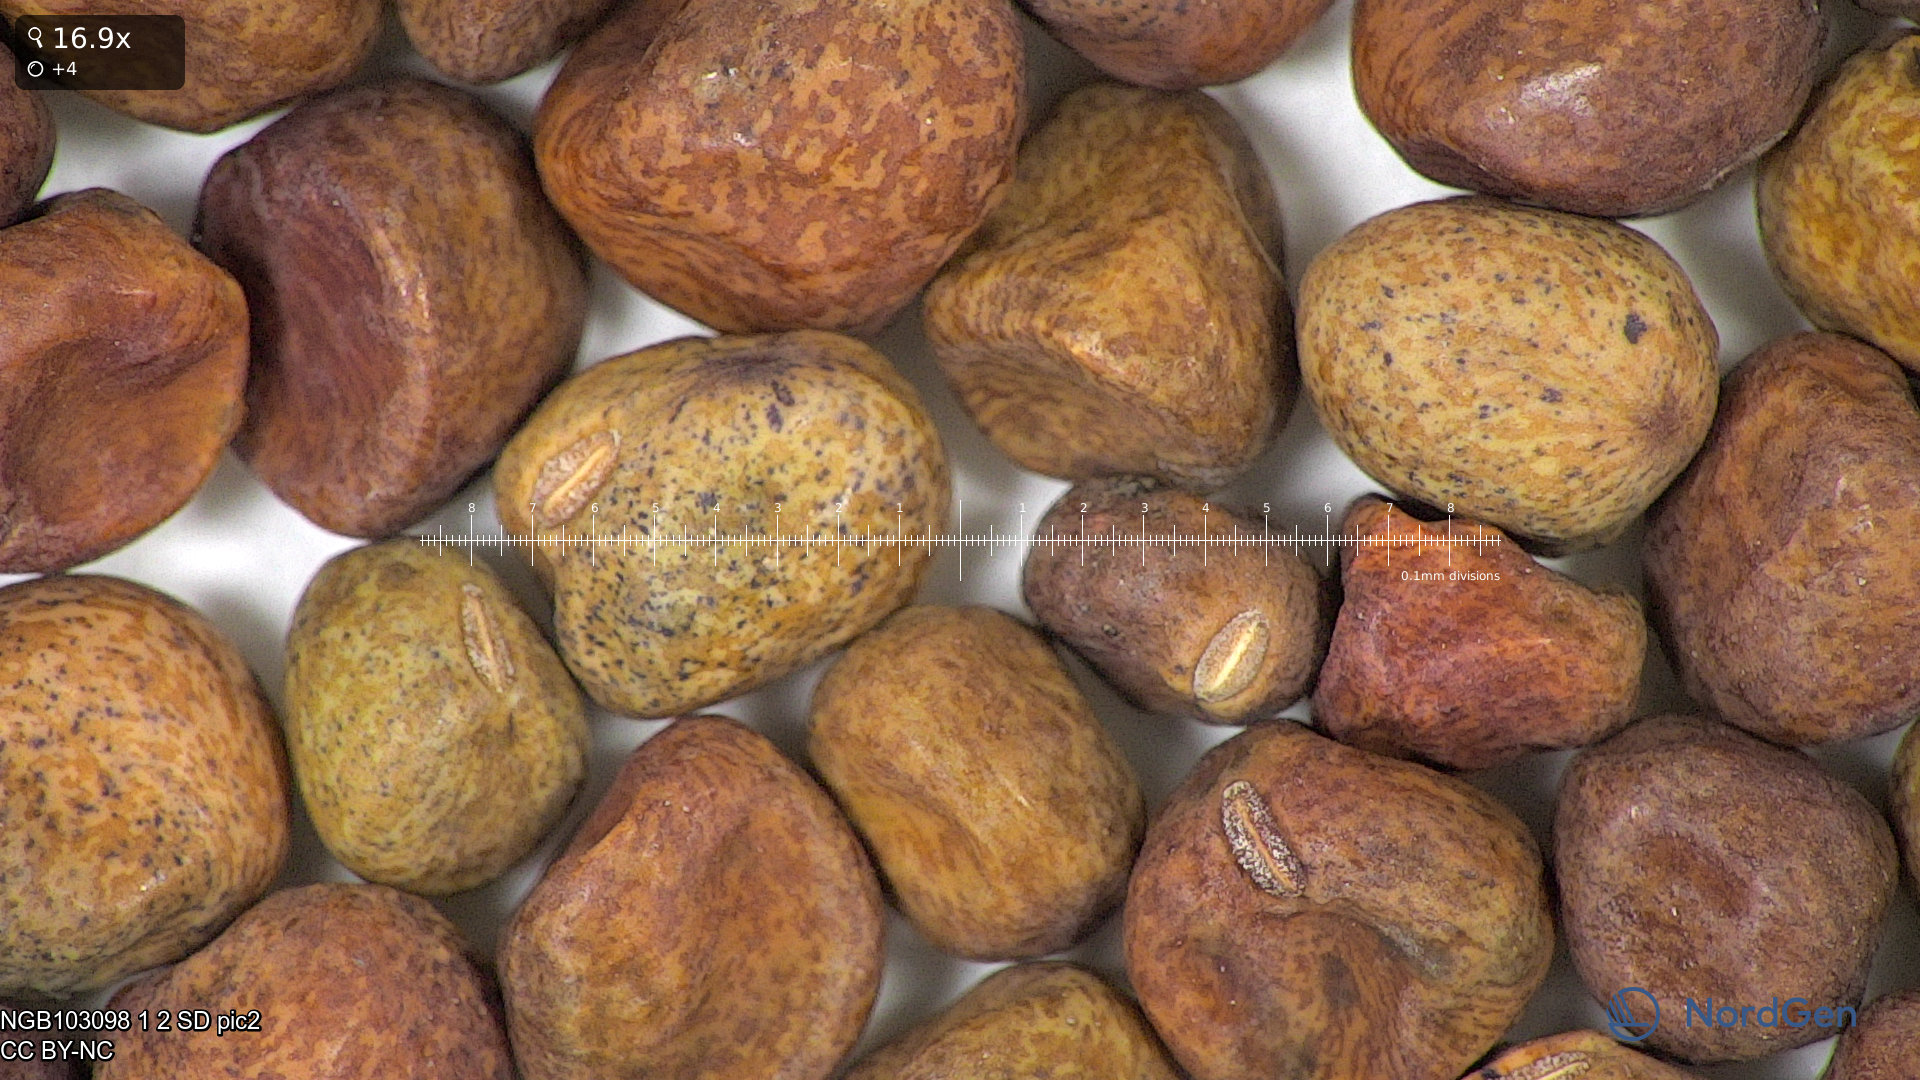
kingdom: Plantae
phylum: Tracheophyta
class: Magnoliopsida
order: Fabales
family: Fabaceae
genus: Lathyrus
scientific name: Lathyrus oleraceus
